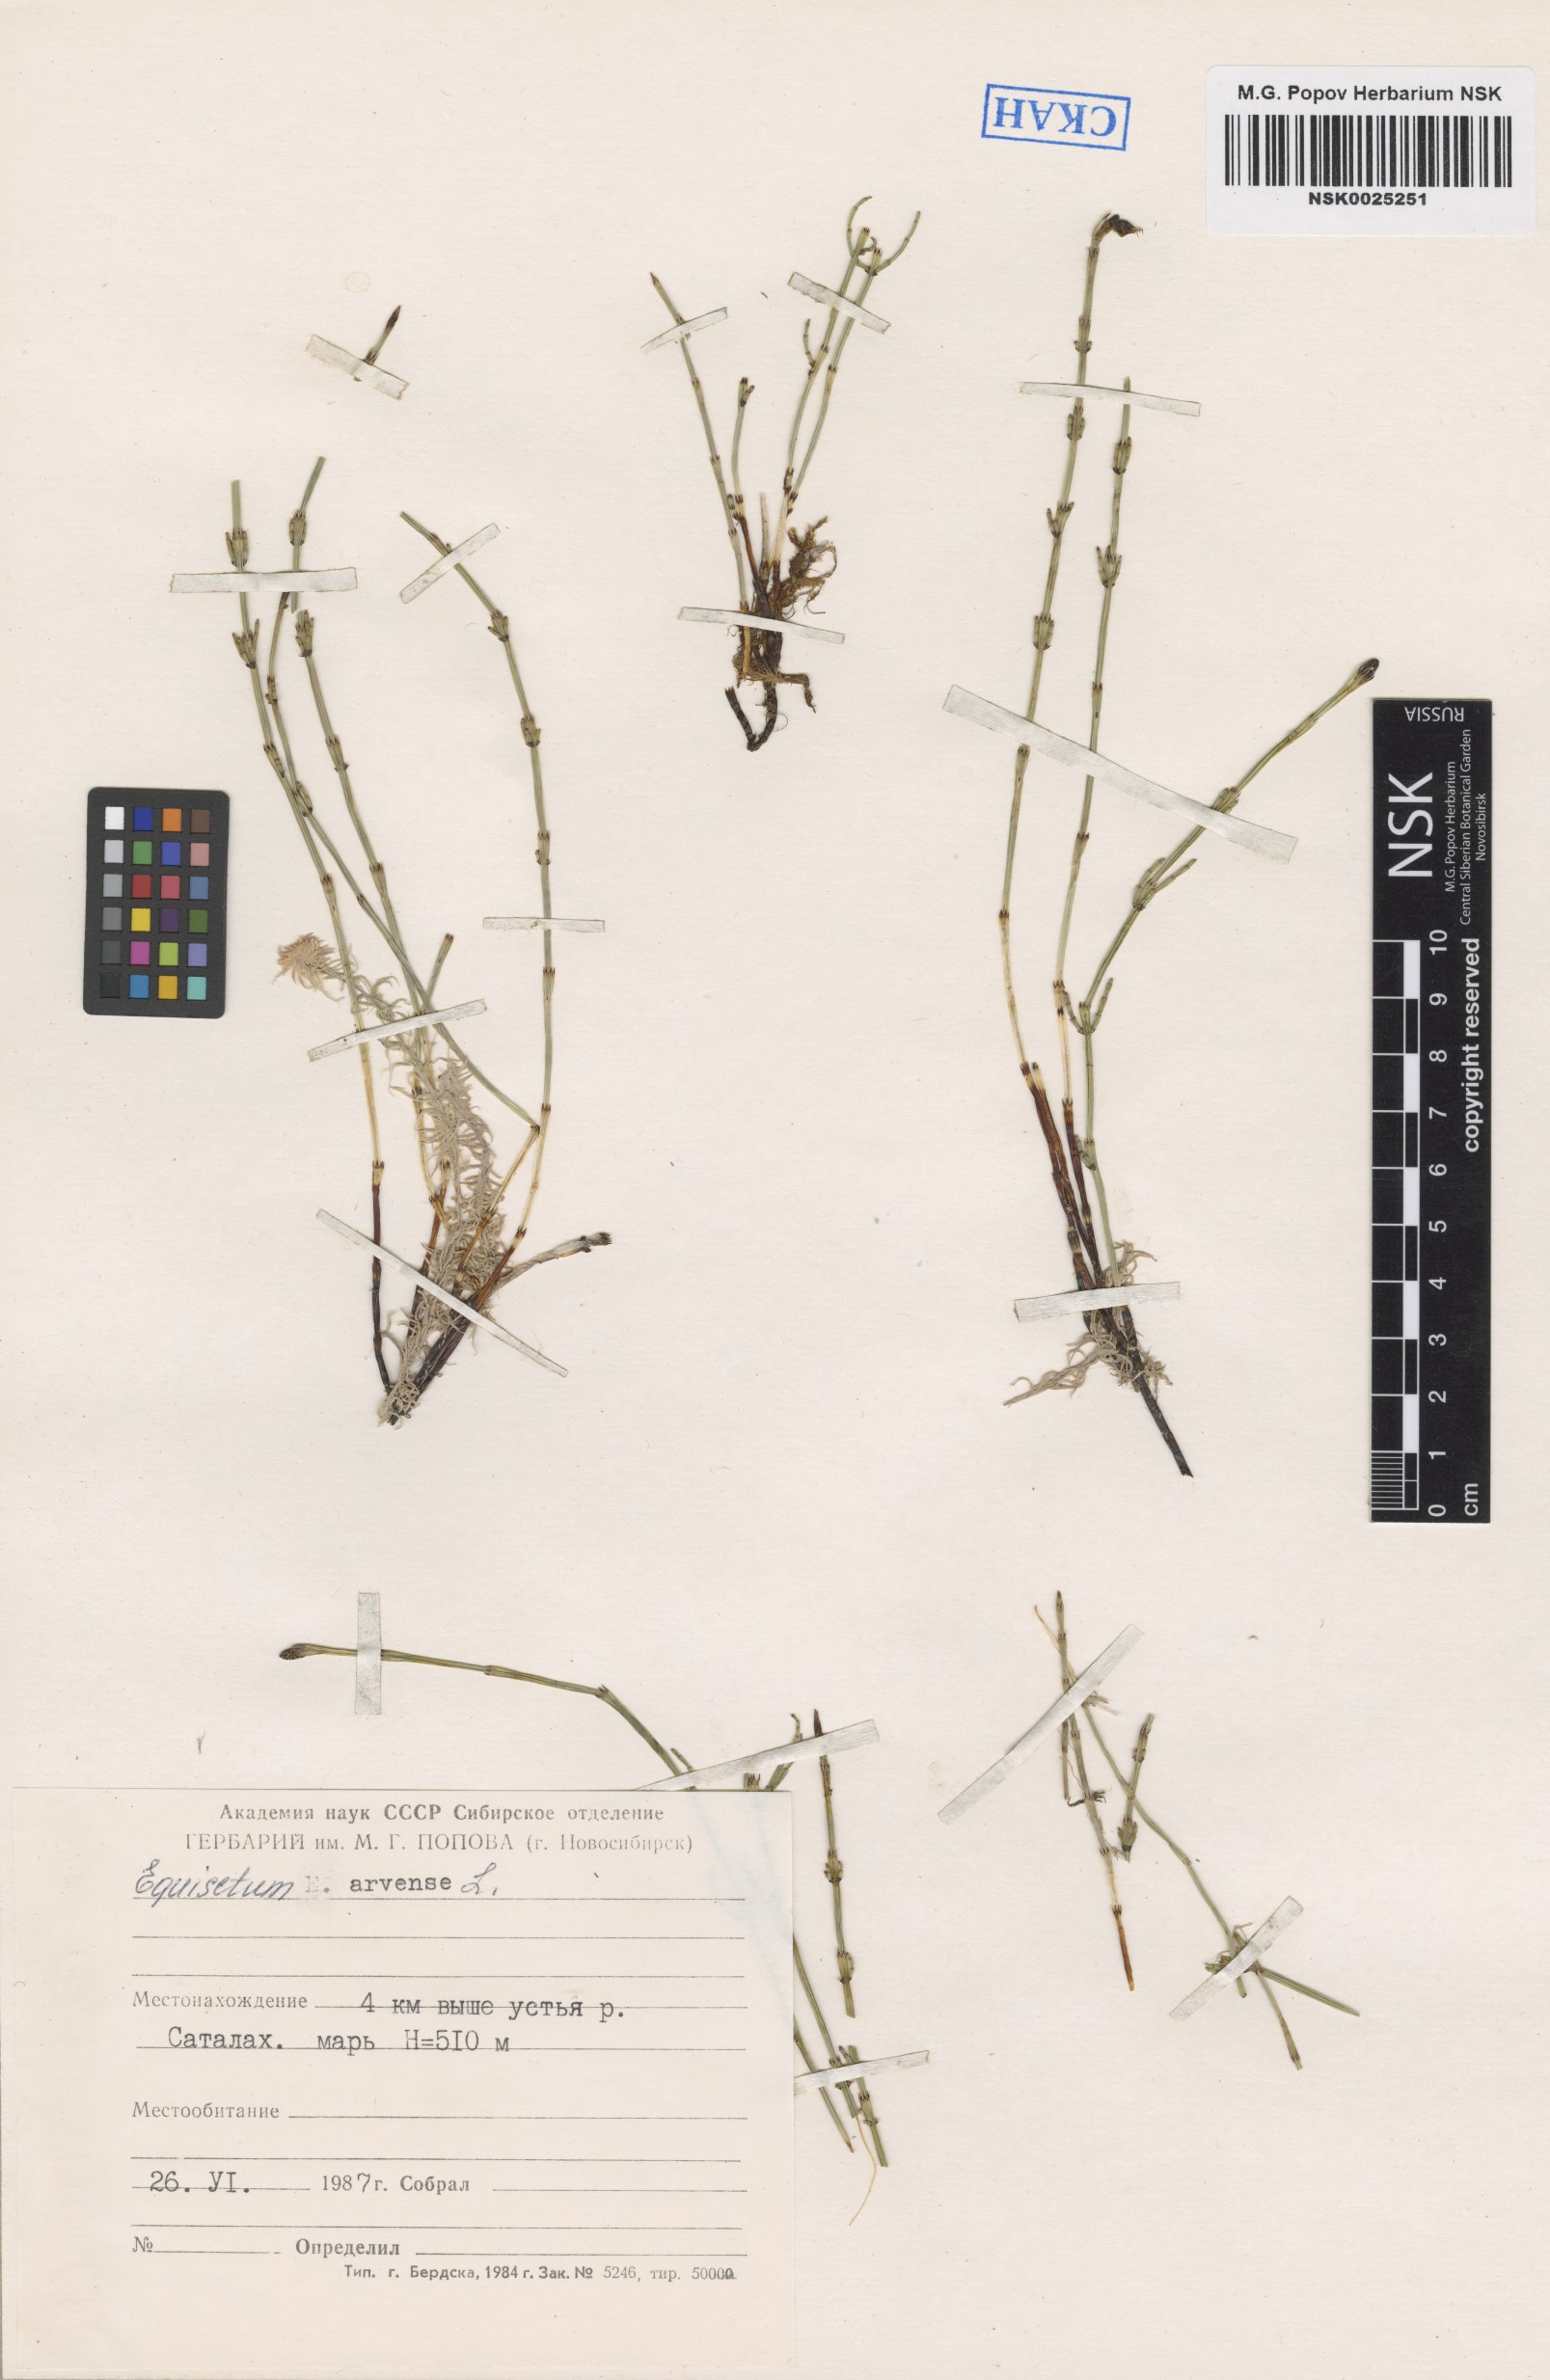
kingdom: Plantae
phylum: Tracheophyta
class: Polypodiopsida
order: Equisetales
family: Equisetaceae
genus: Equisetum
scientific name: Equisetum arvense
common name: Field horsetail
